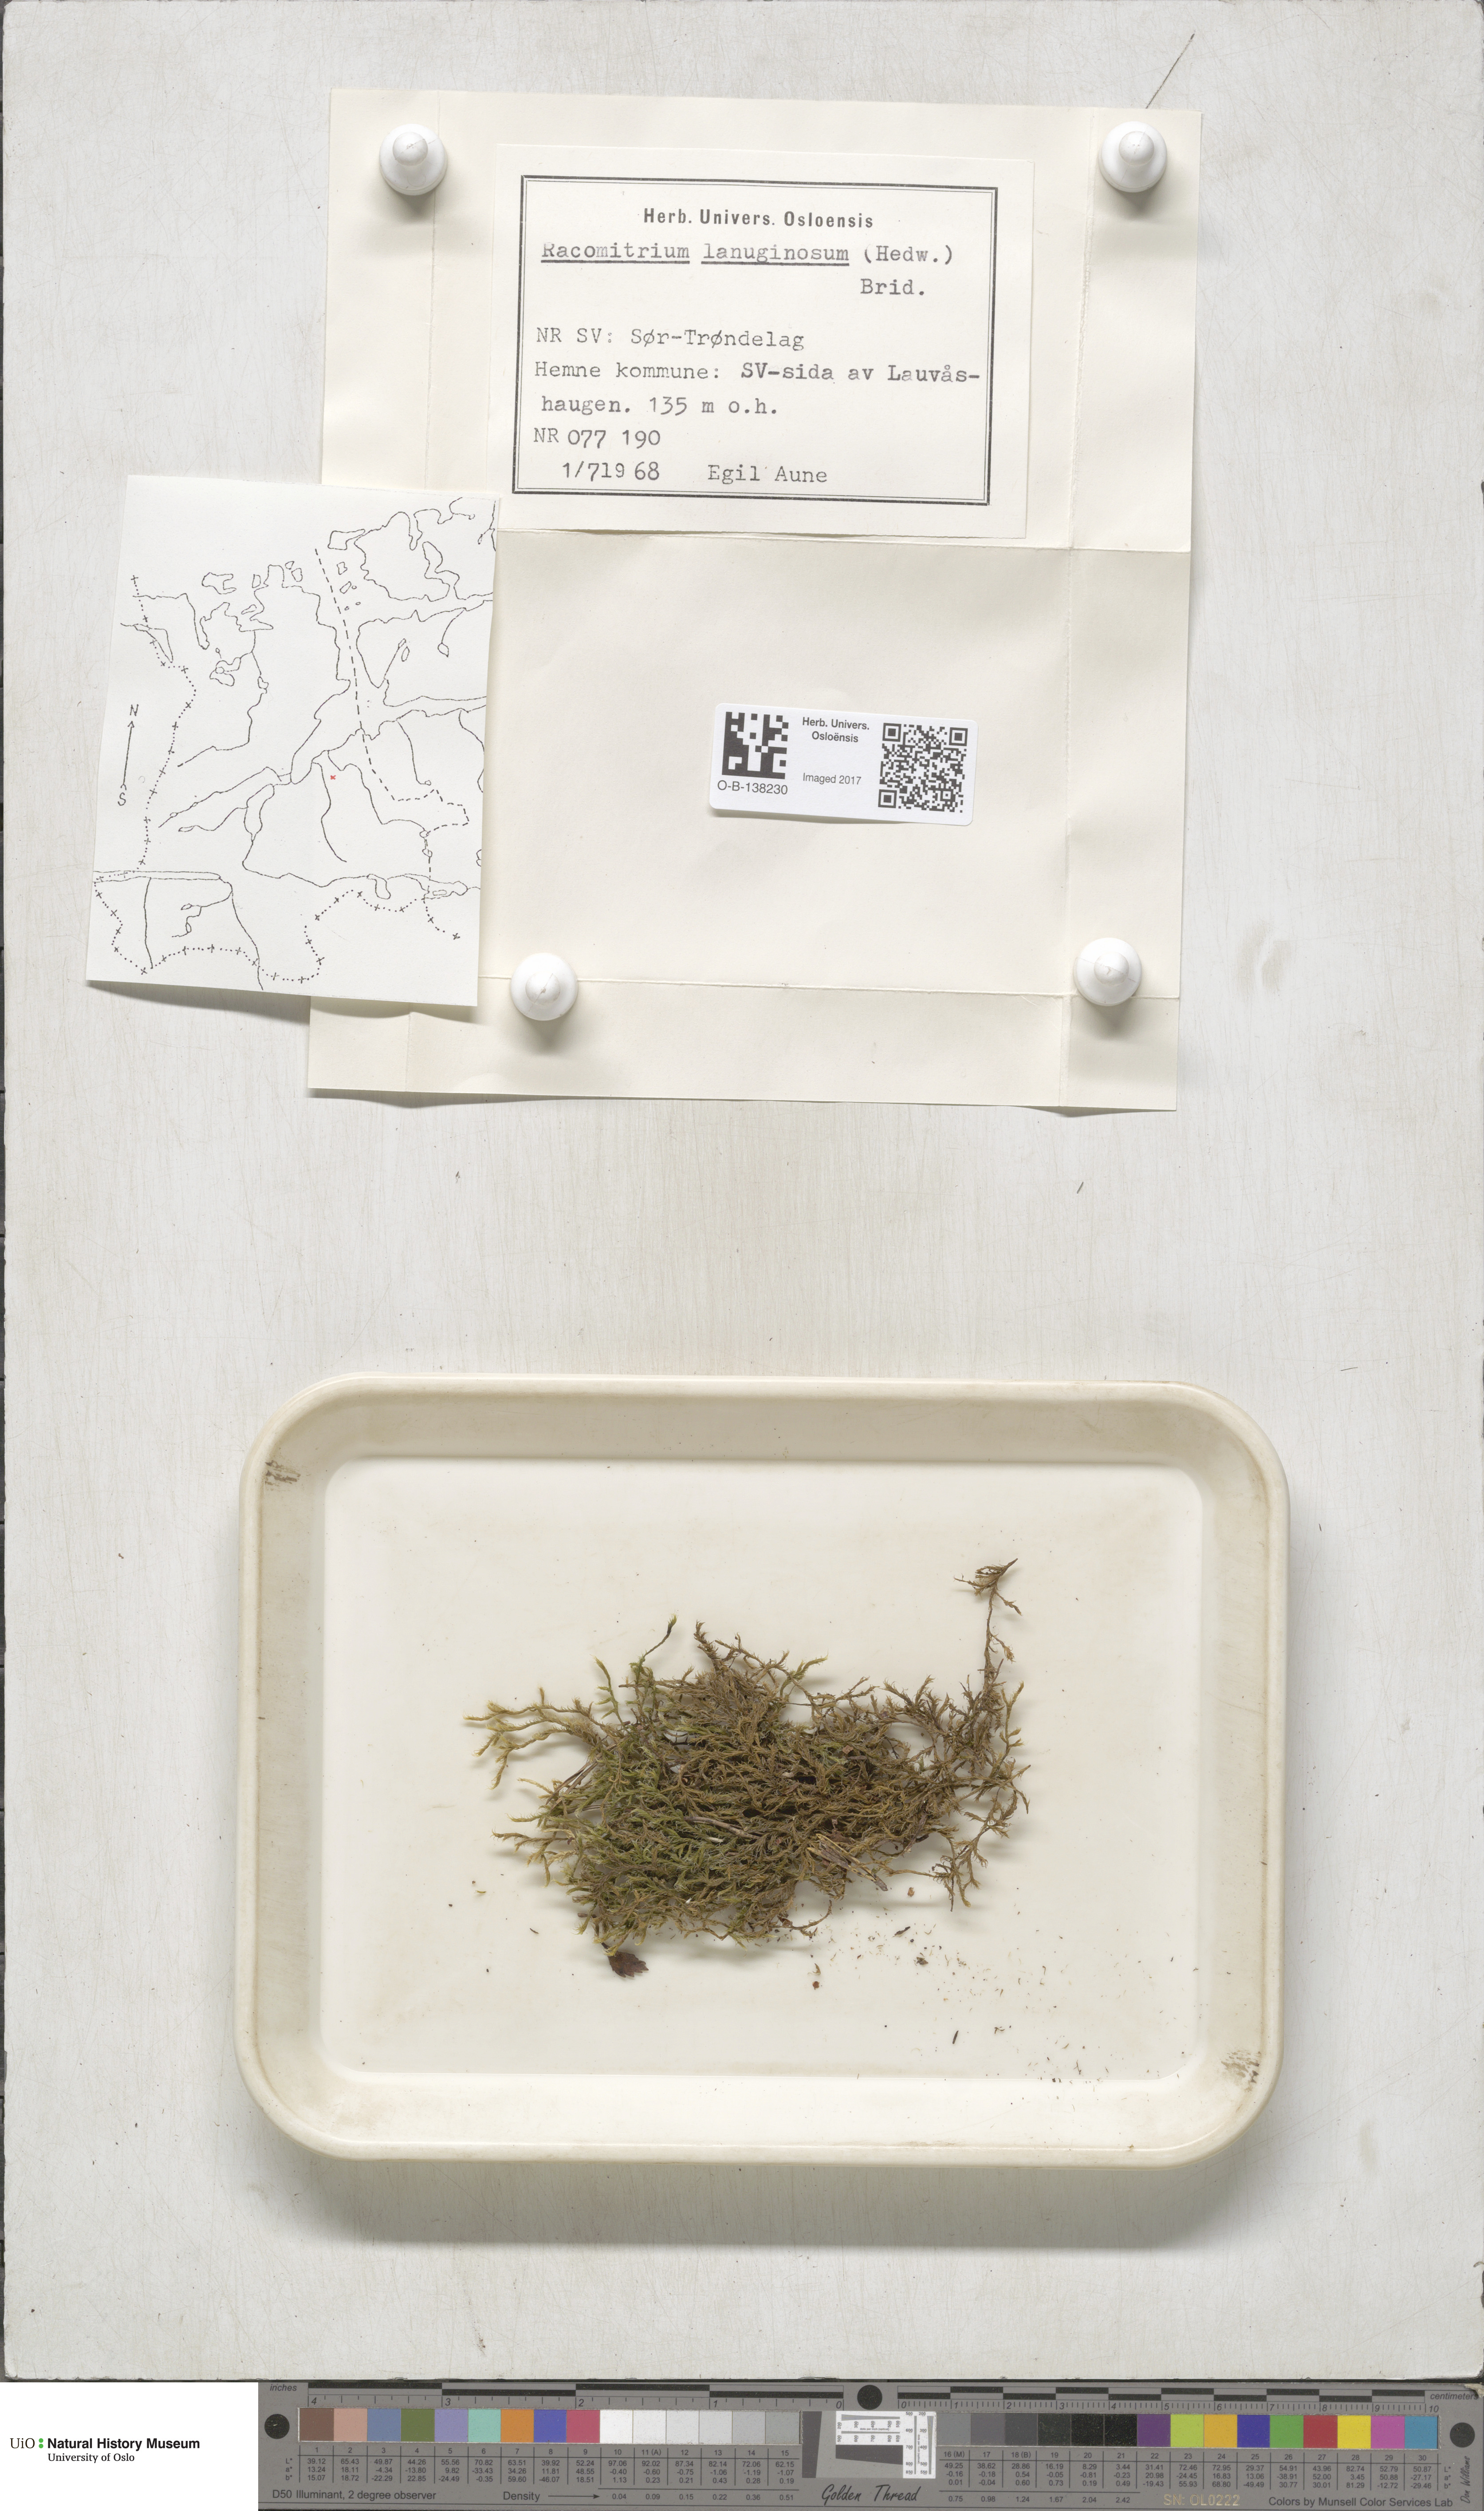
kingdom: Plantae
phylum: Bryophyta
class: Bryopsida
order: Grimmiales
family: Grimmiaceae
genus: Racomitrium
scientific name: Racomitrium lanuginosum
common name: Hoary rock moss
